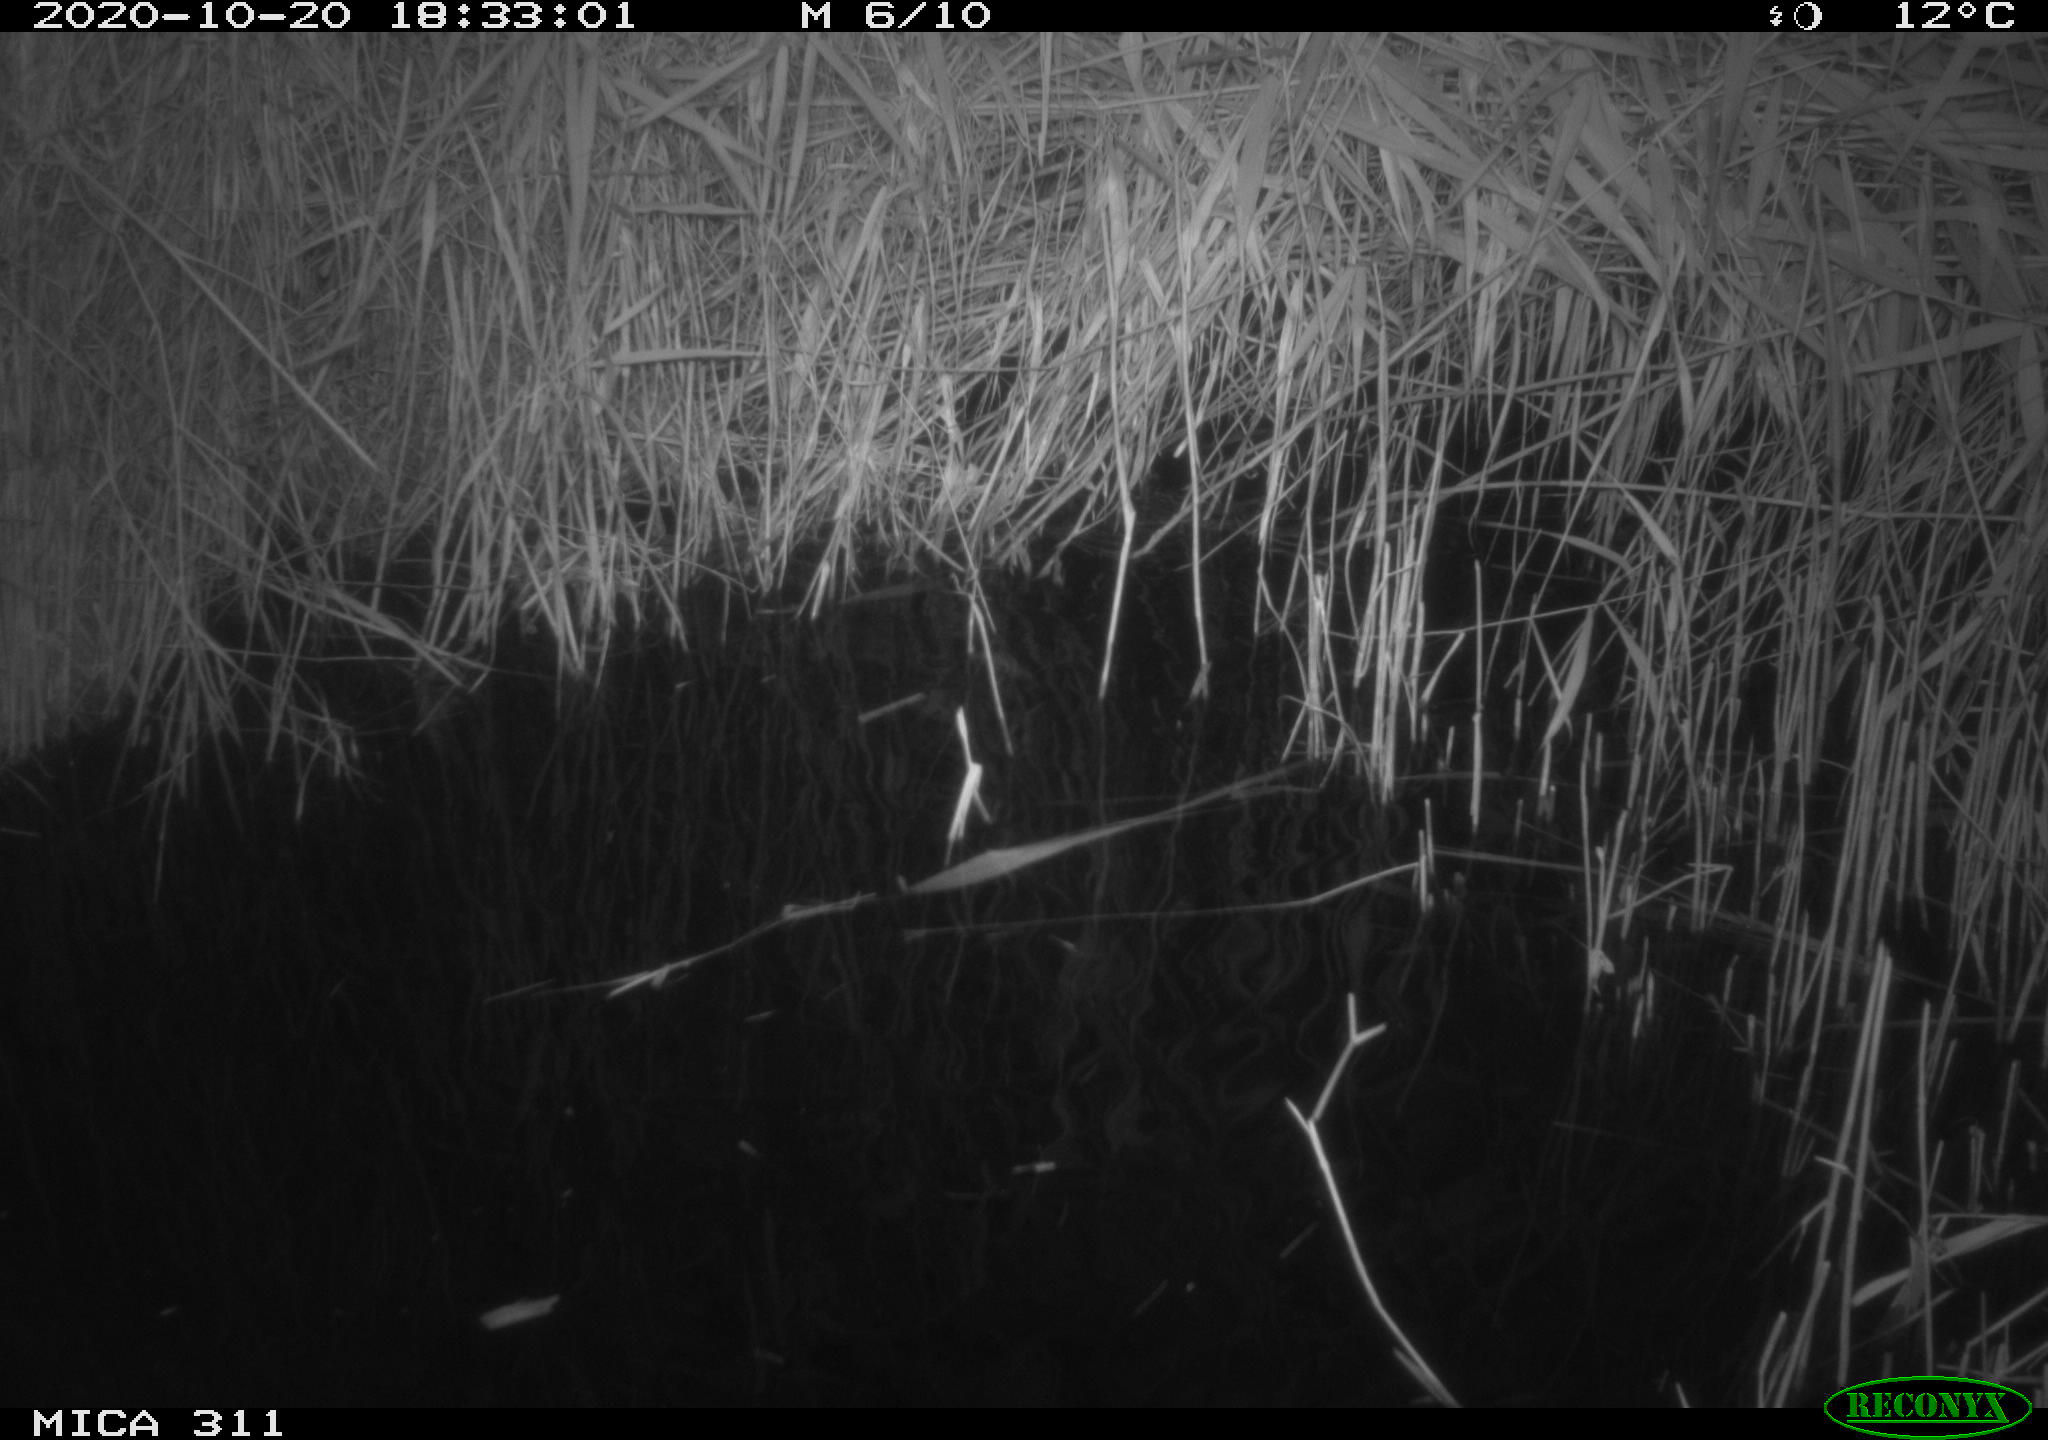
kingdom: Animalia
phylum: Chordata
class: Mammalia
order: Rodentia
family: Muridae
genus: Rattus
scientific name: Rattus norvegicus
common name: Brown rat
